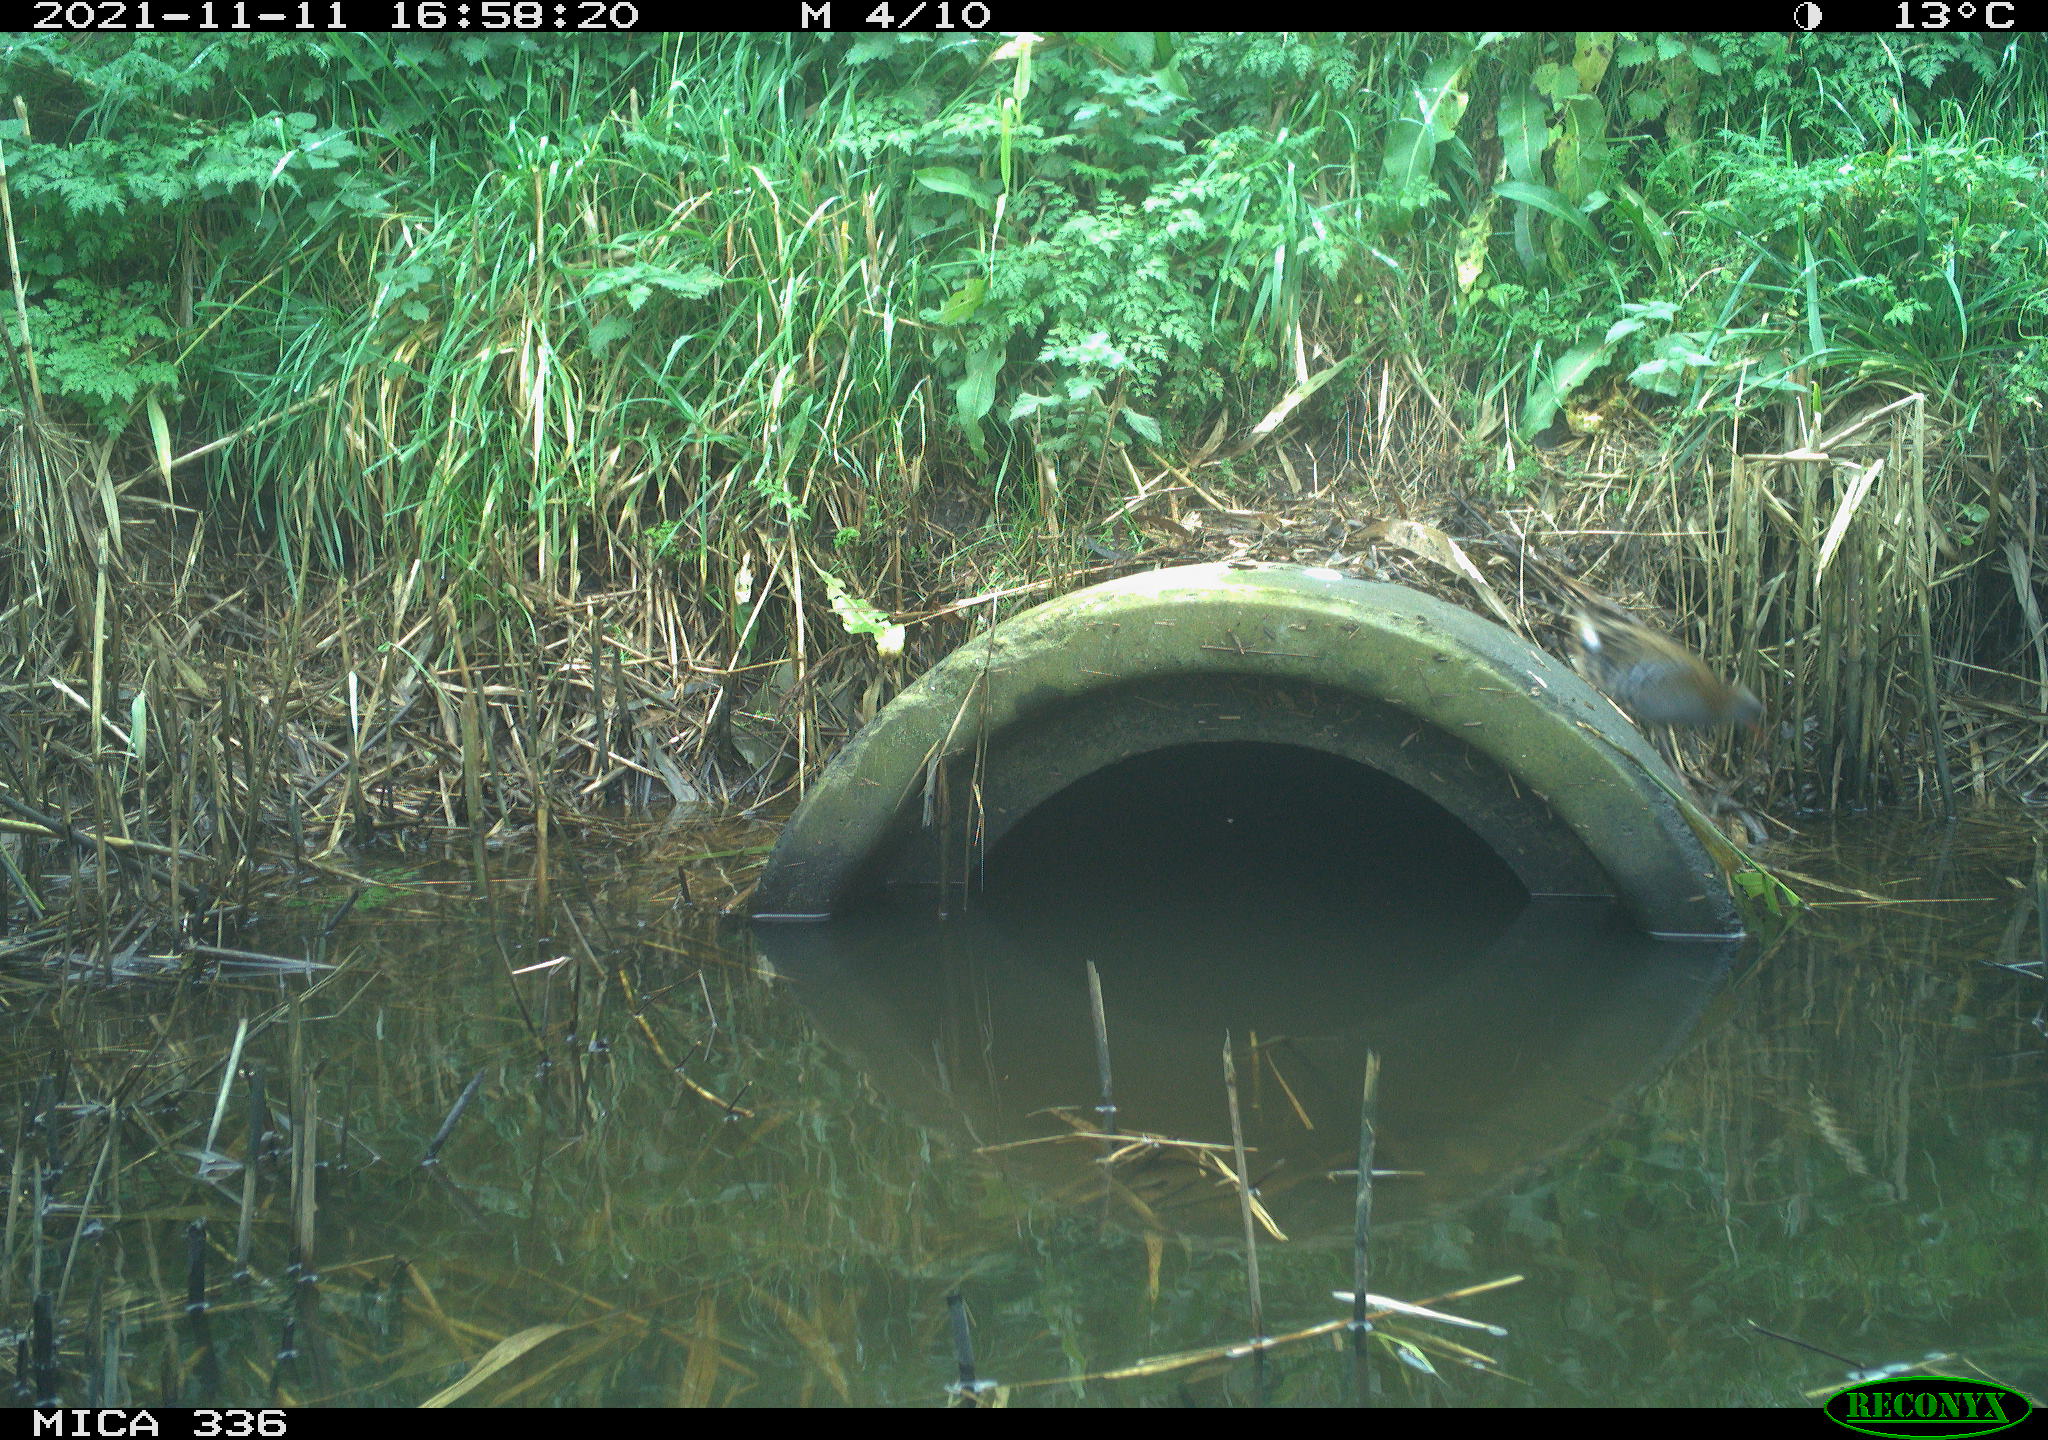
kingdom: Animalia
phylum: Chordata
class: Aves
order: Gruiformes
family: Rallidae
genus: Gallinula
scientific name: Gallinula chloropus
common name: Common moorhen
